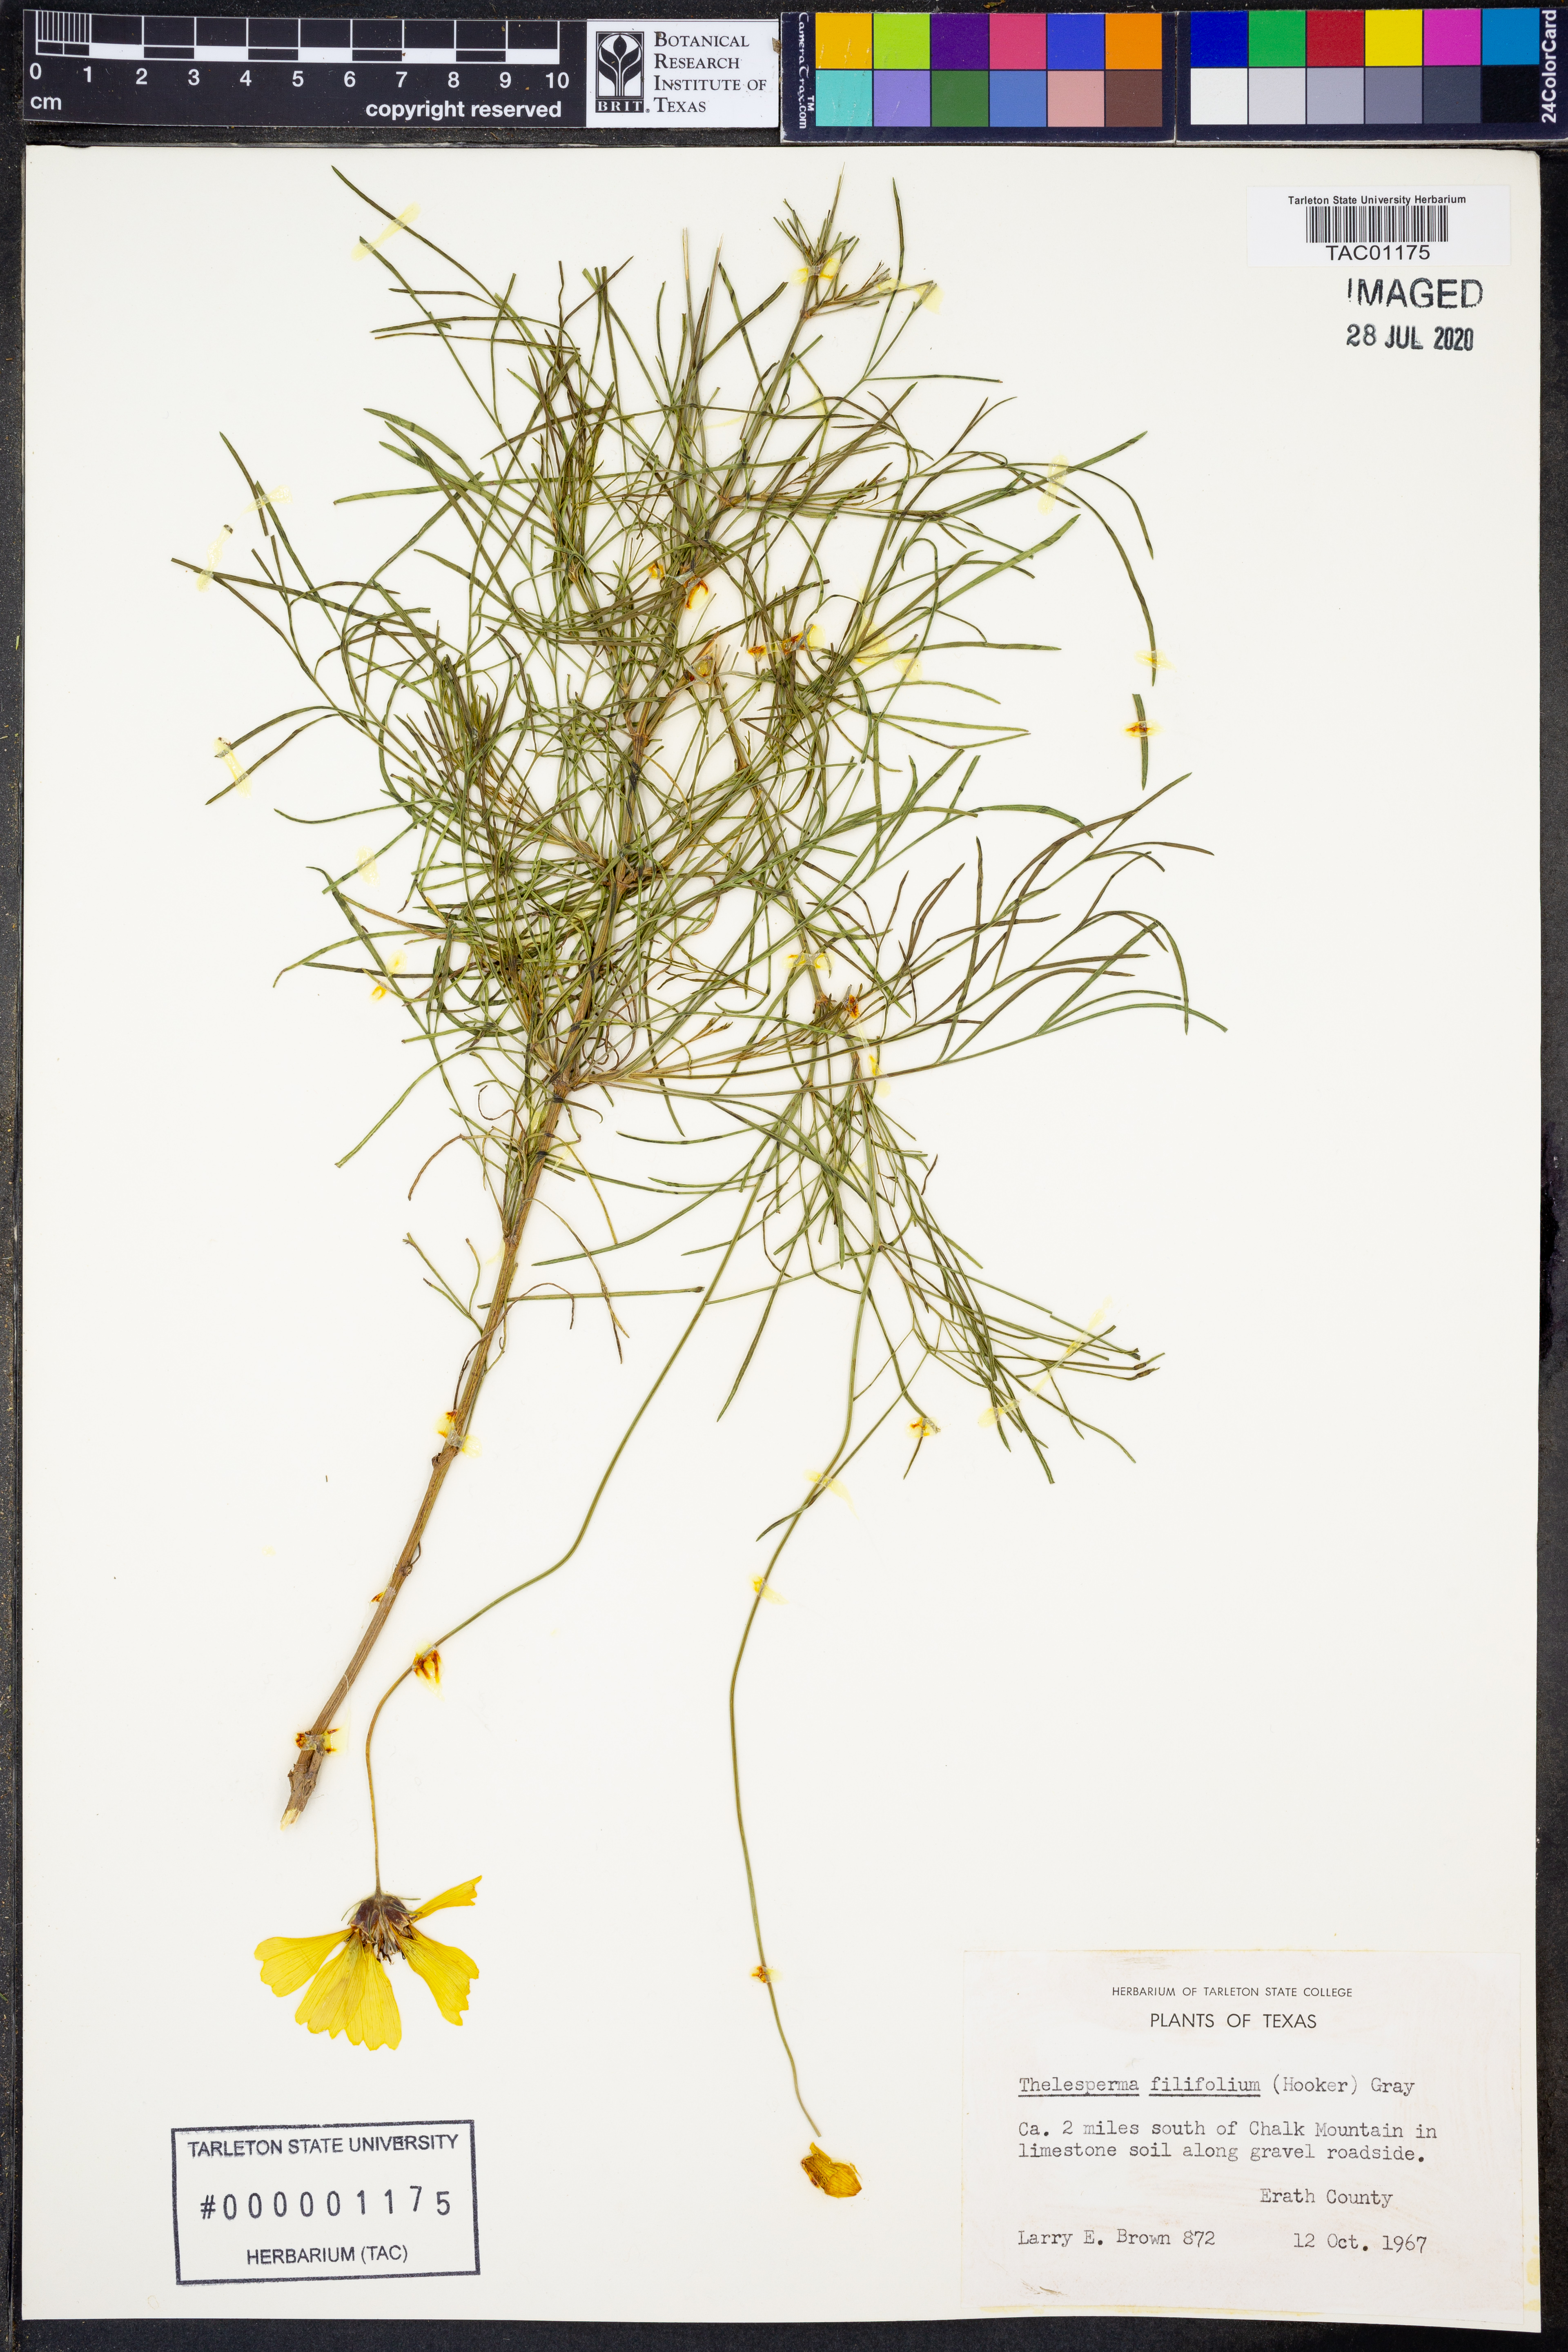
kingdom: Plantae
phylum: Tracheophyta
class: Magnoliopsida
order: Asterales
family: Asteraceae
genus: Thelesperma
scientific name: Thelesperma filifolium
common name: Stiff greenthread
